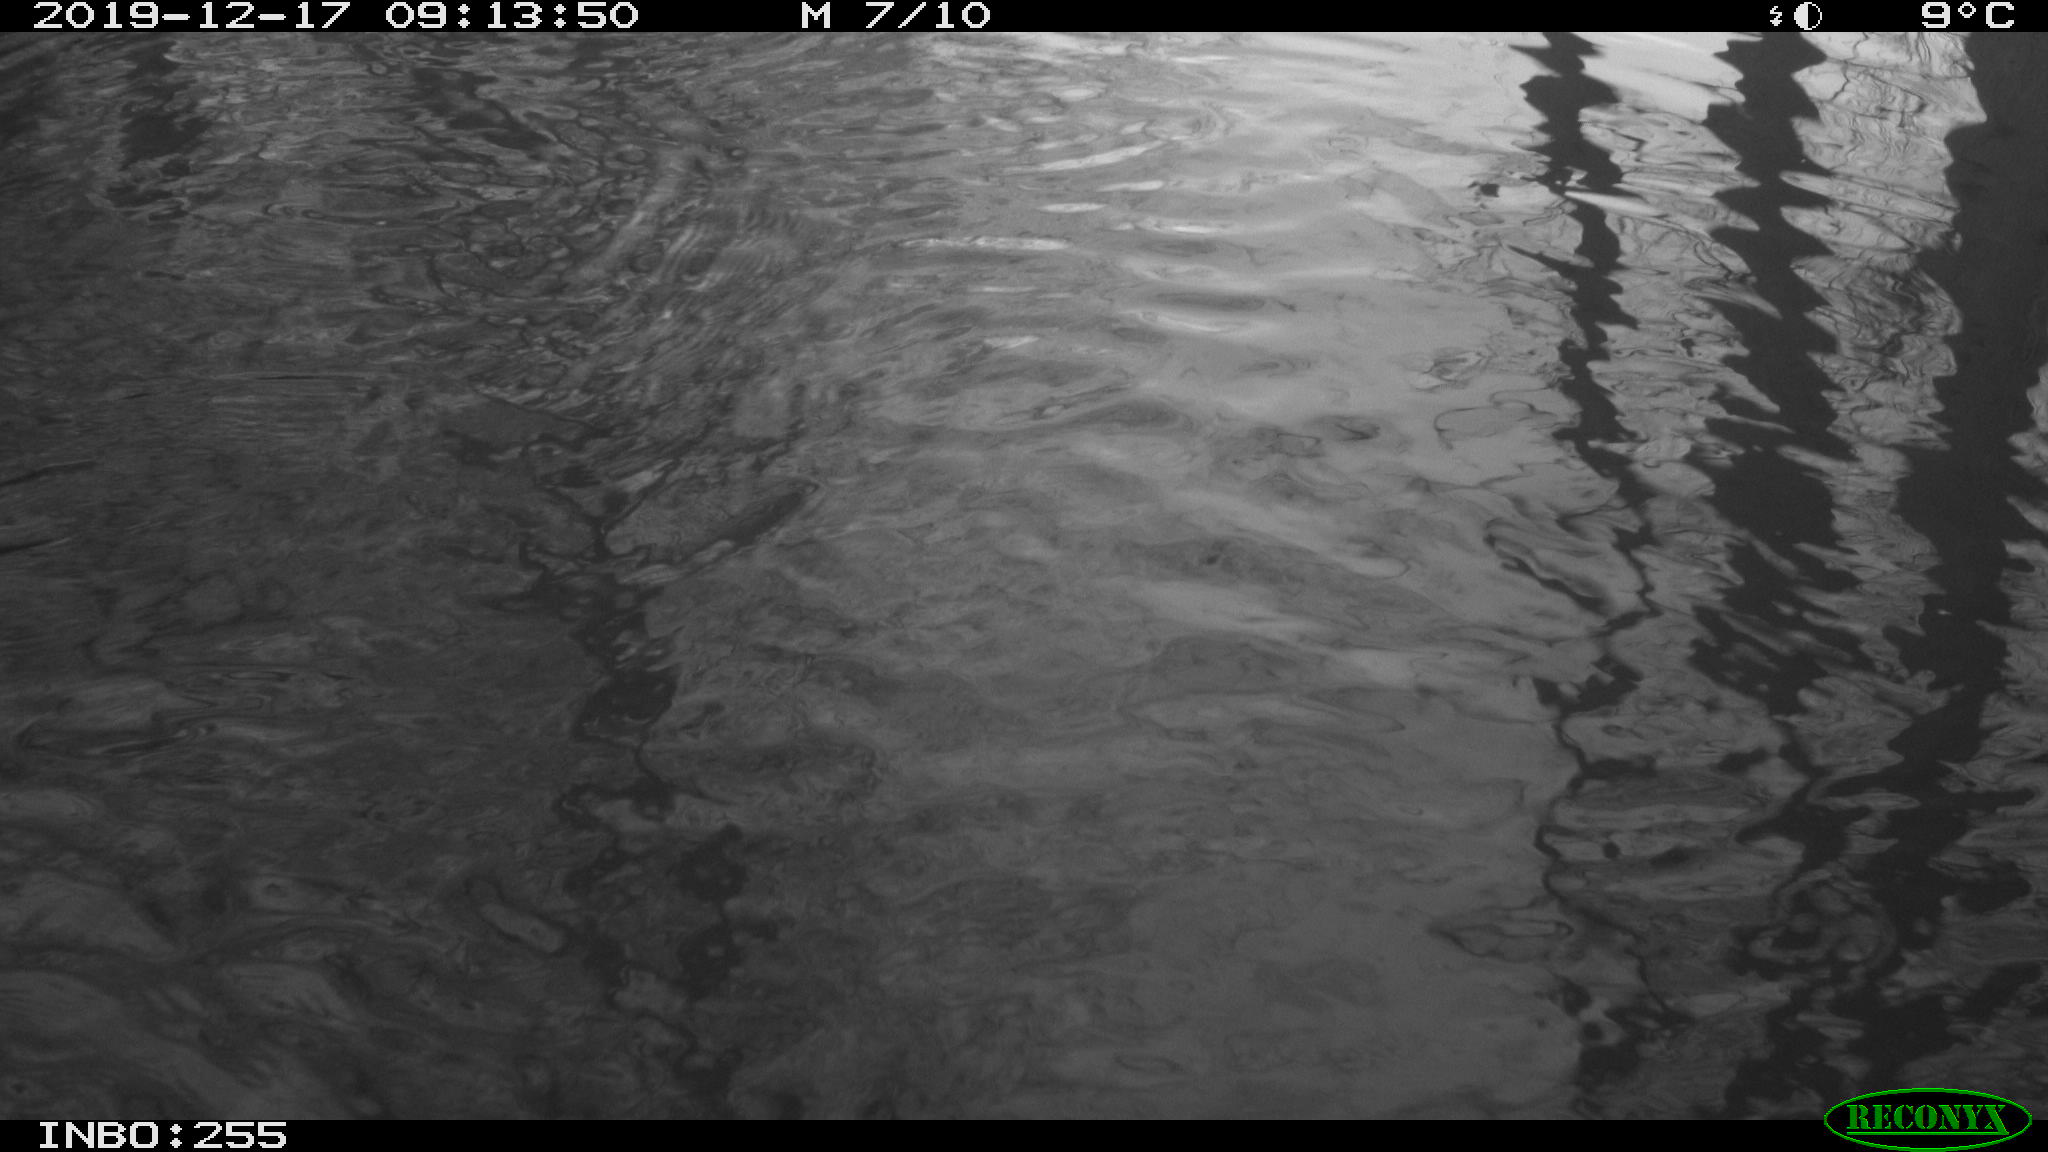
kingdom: Animalia
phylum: Chordata
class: Aves
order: Anseriformes
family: Anatidae
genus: Anas
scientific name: Anas platyrhynchos
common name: Mallard
